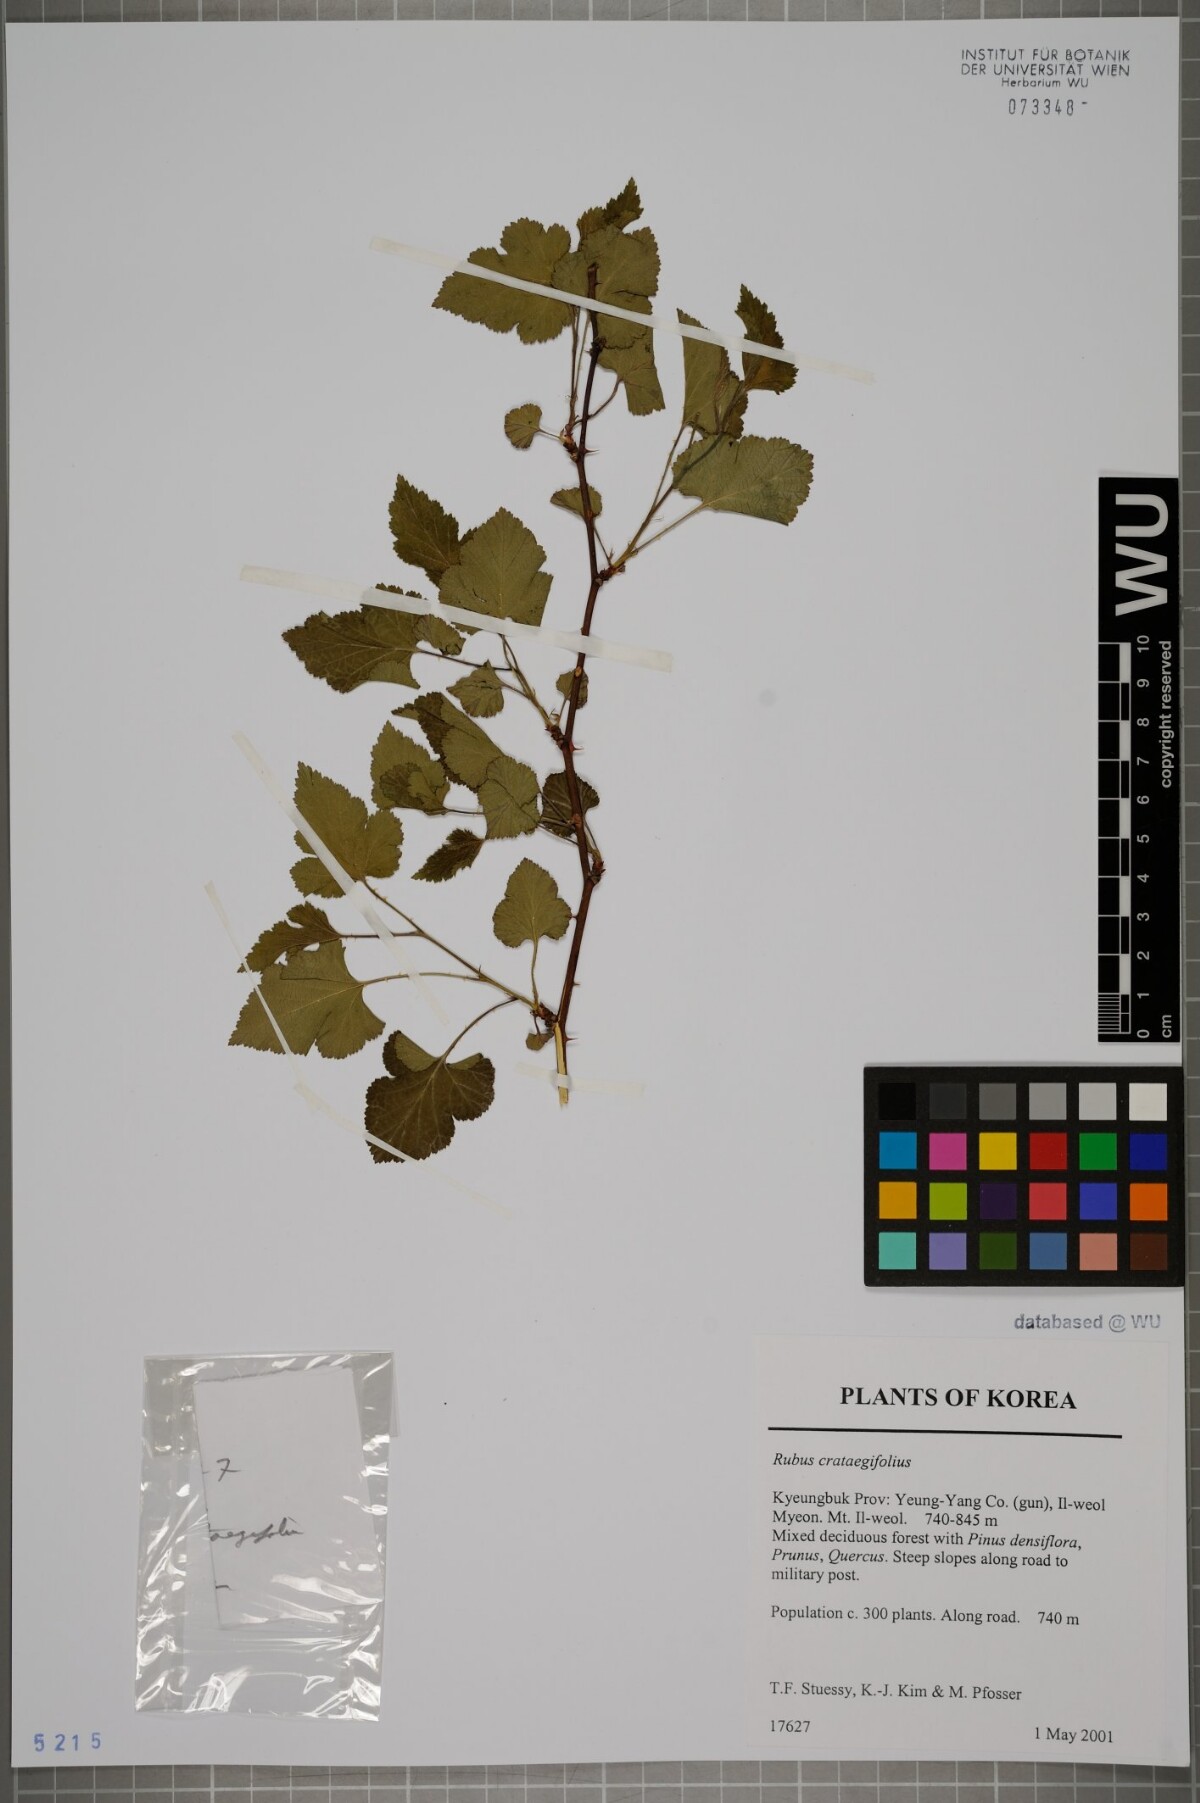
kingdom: Plantae
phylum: Tracheophyta
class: Magnoliopsida
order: Rosales
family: Rosaceae
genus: Rubus
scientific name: Rubus crataegifolius
